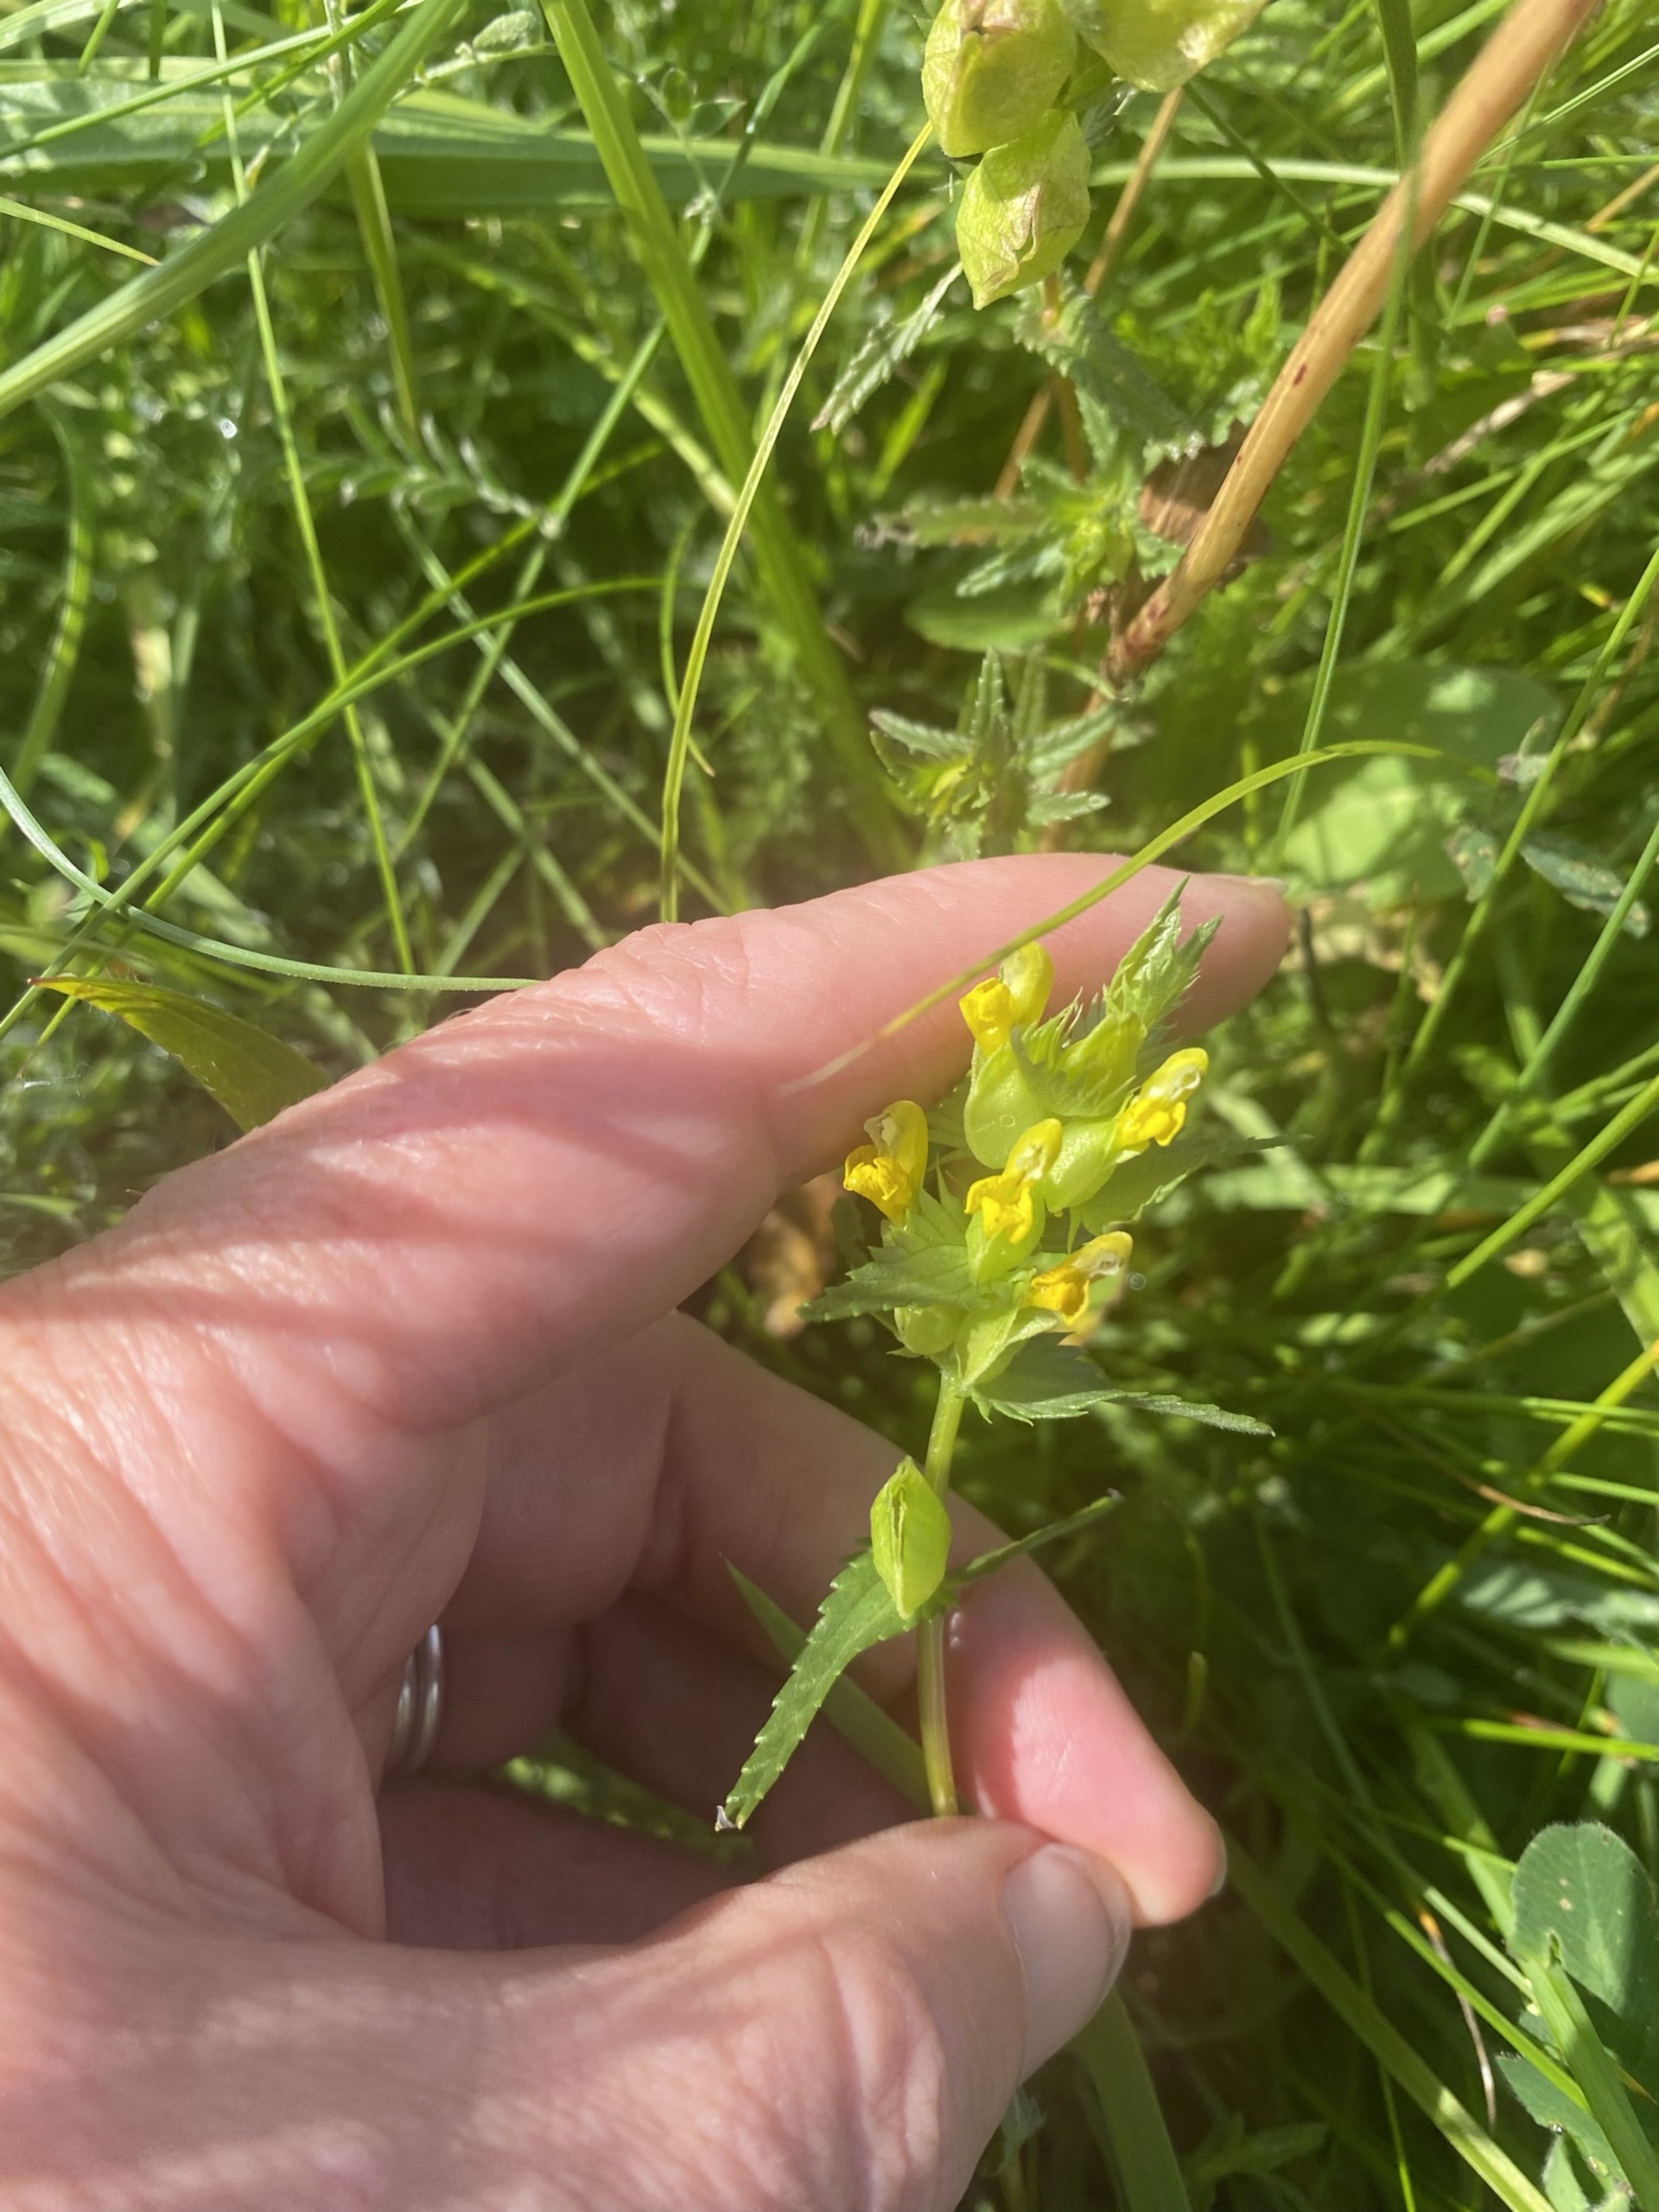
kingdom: Plantae
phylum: Tracheophyta
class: Magnoliopsida
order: Lamiales
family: Orobanchaceae
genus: Rhinanthus
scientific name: Rhinanthus minor
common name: Liden skjaller
